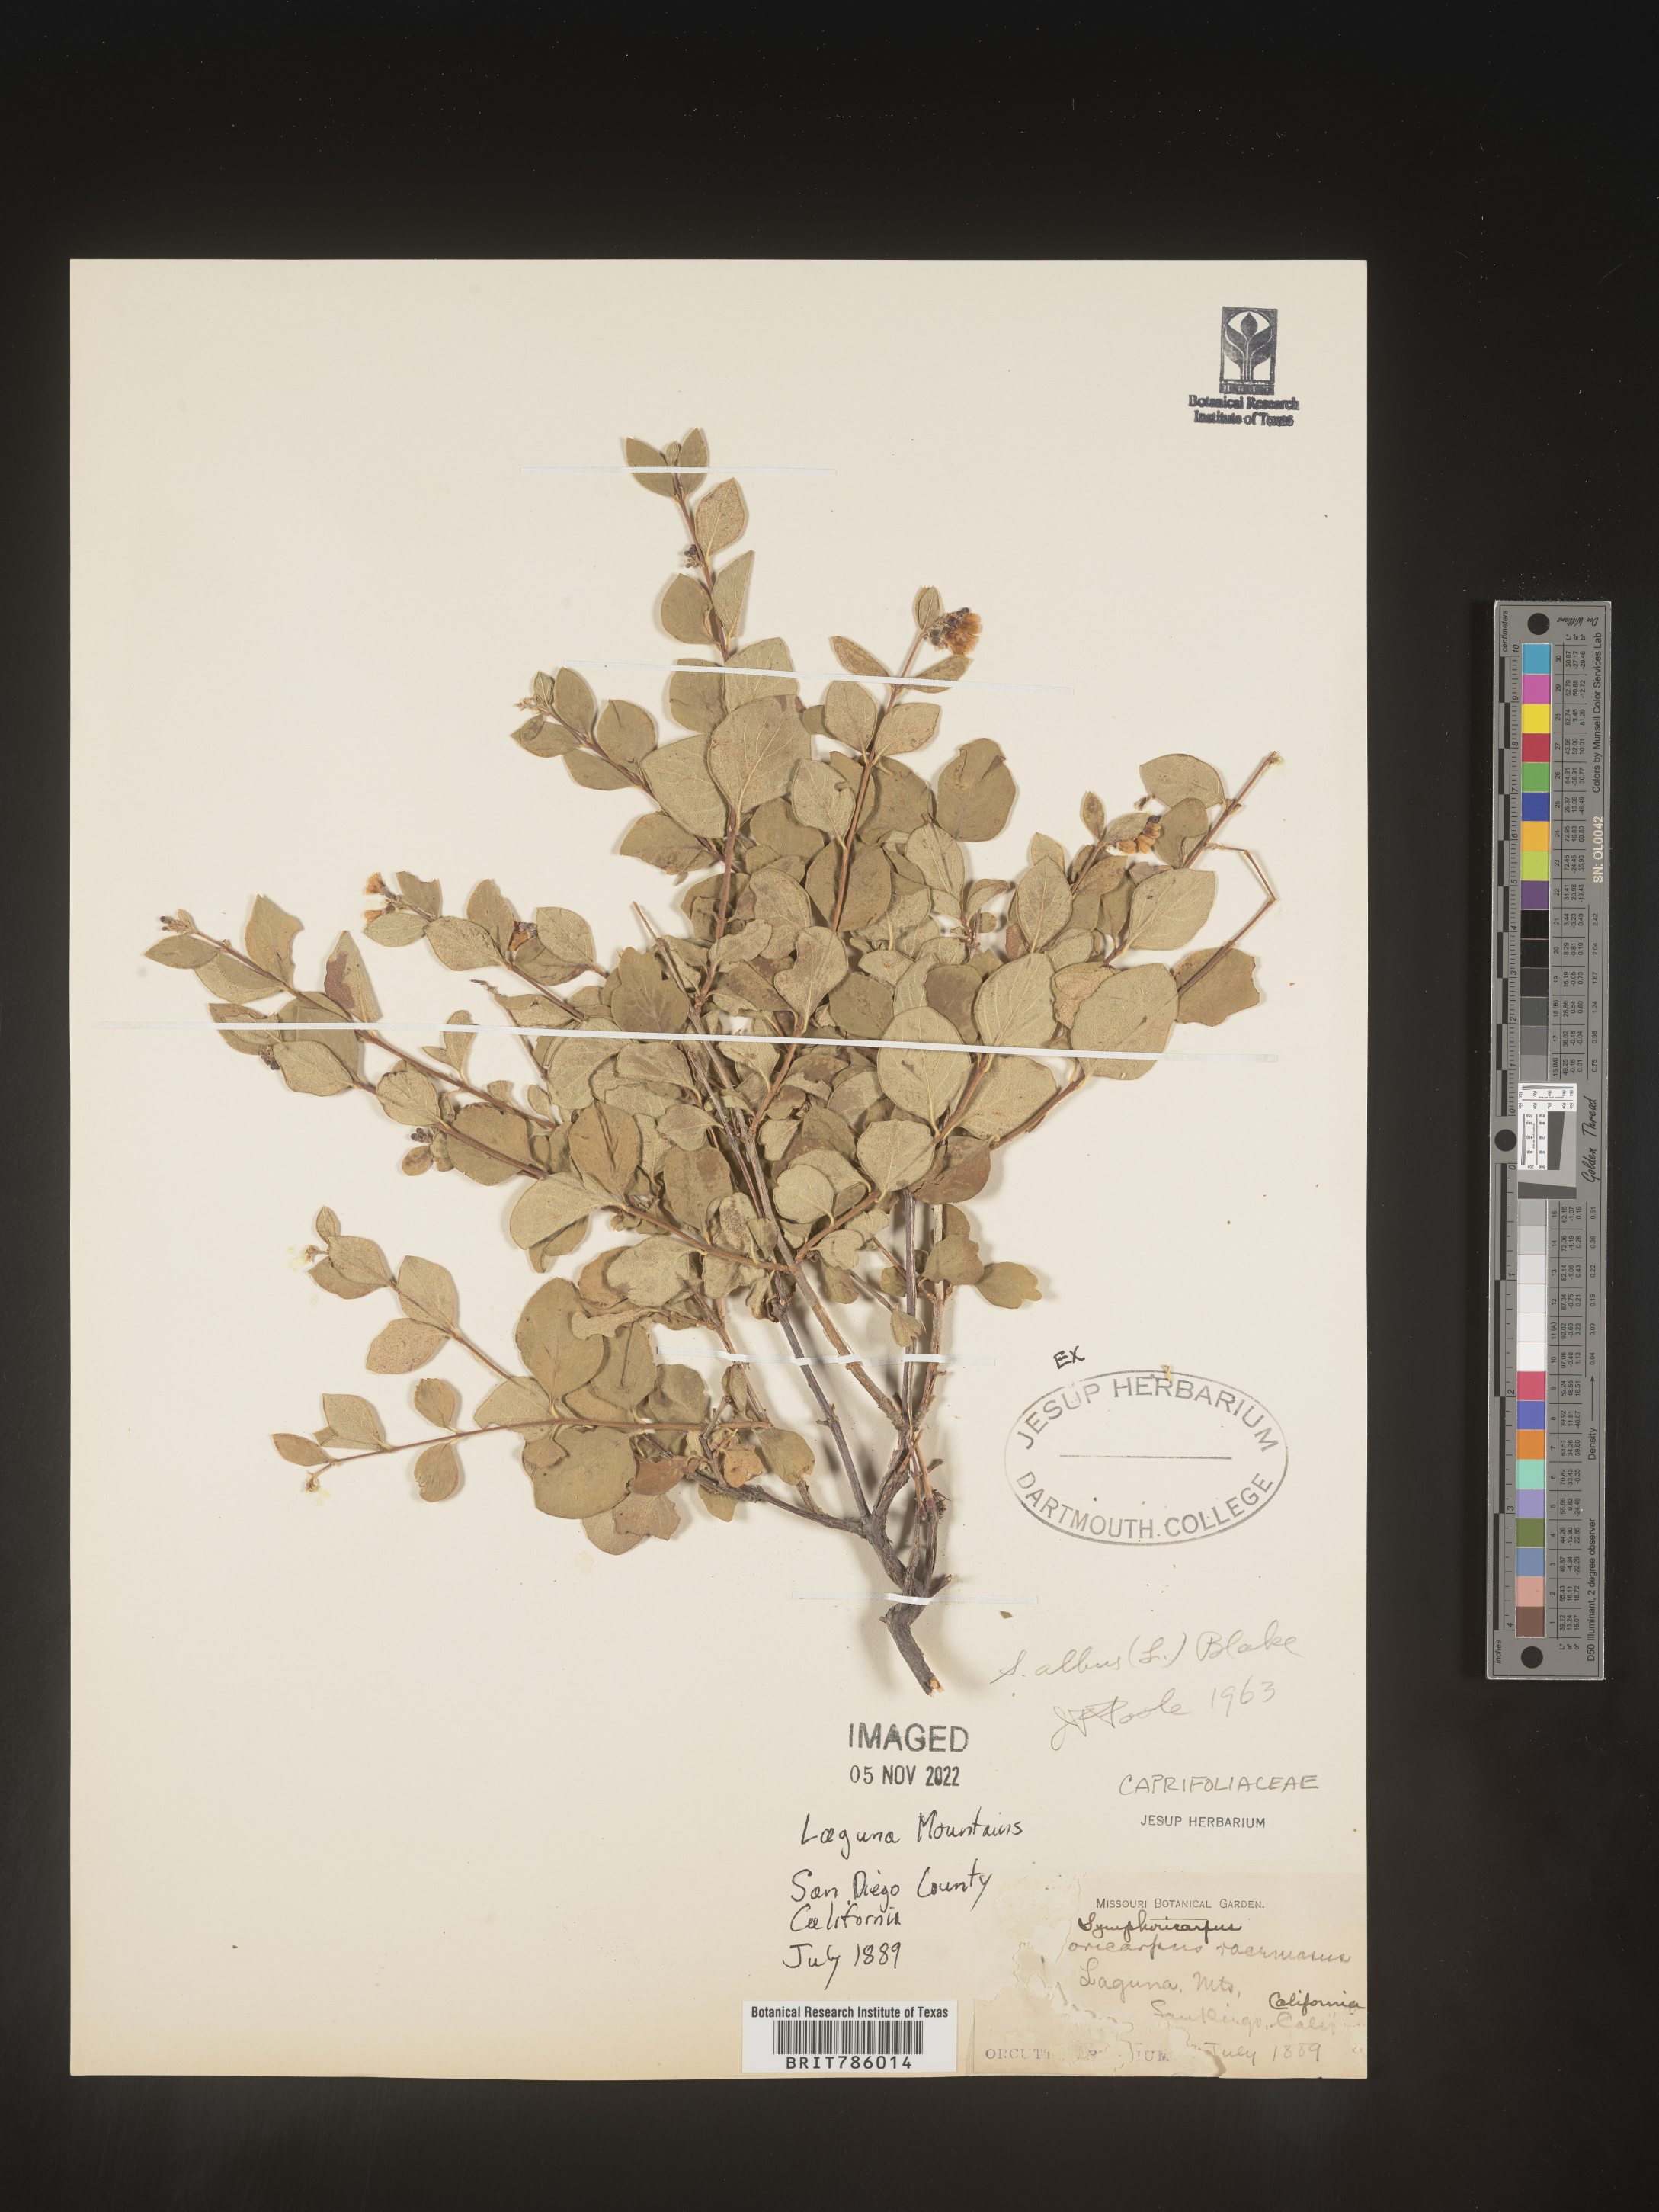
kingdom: Plantae
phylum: Tracheophyta
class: Magnoliopsida
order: Dipsacales
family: Caprifoliaceae
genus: Symphoricarpos
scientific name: Symphoricarpos albus
